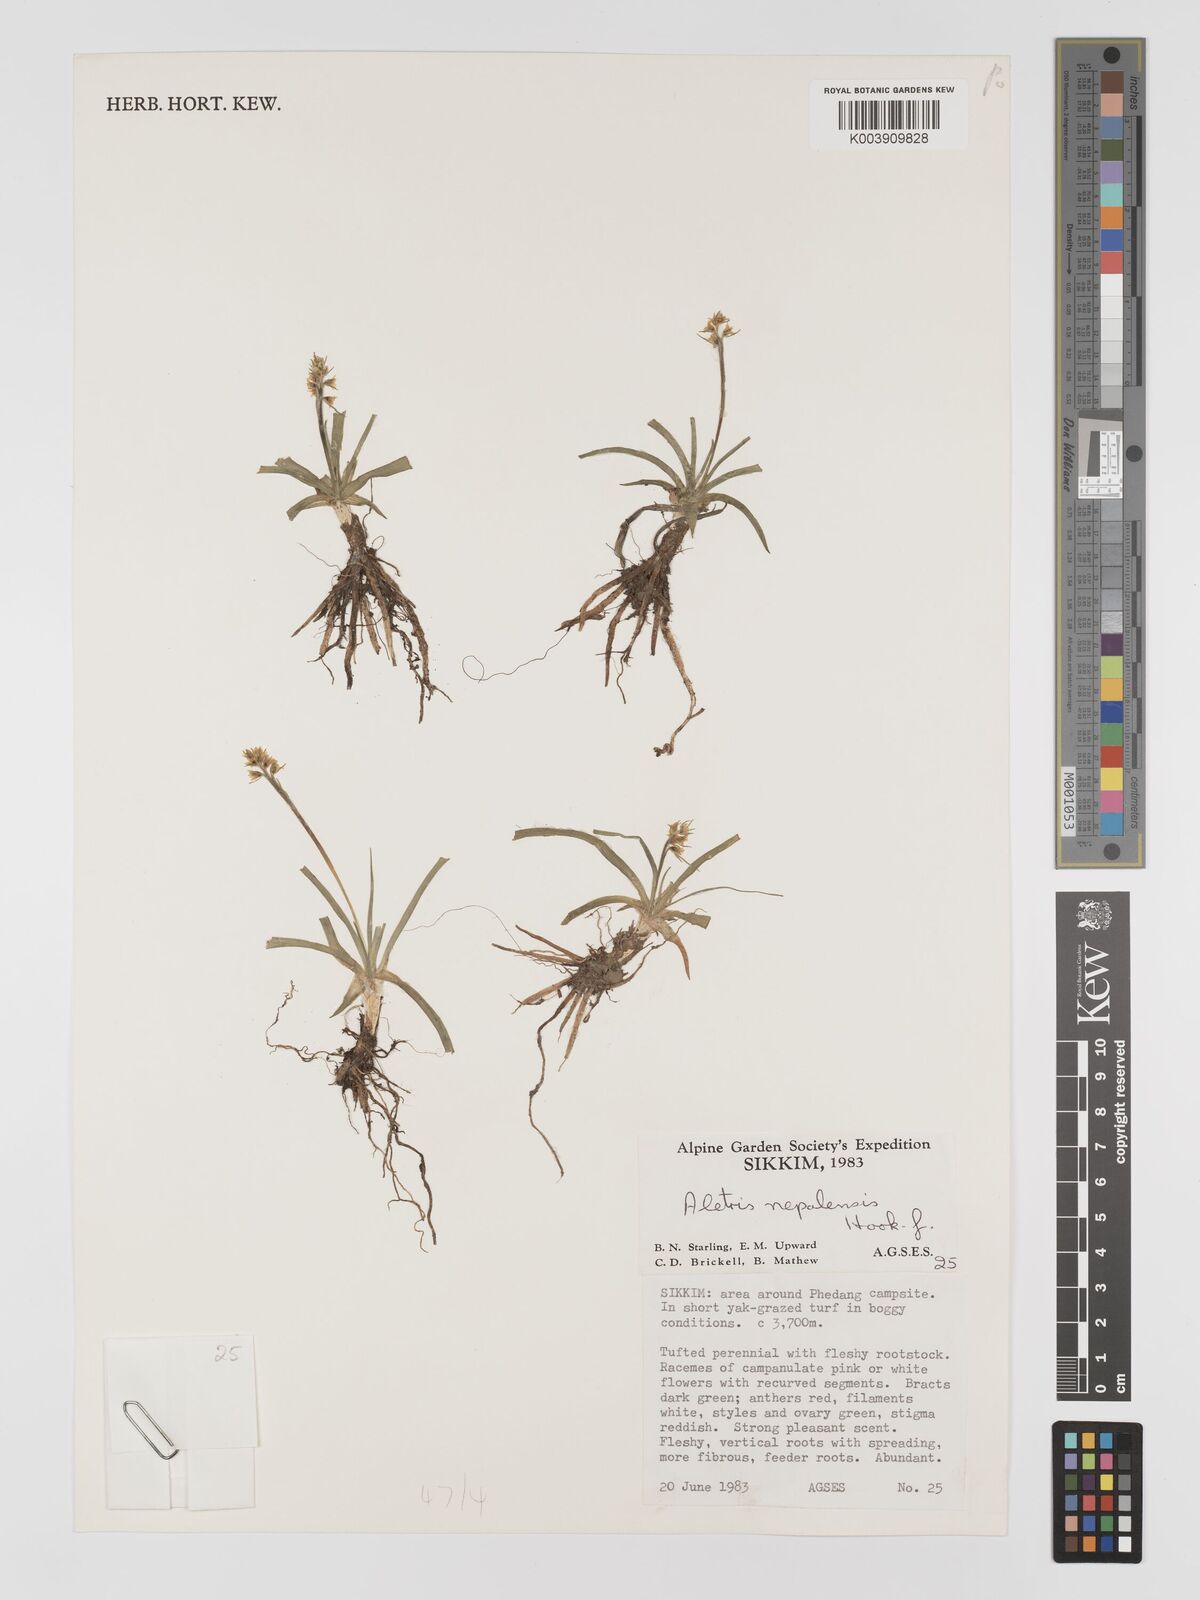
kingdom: Plantae
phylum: Tracheophyta
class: Liliopsida
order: Dioscoreales
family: Nartheciaceae
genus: Aletris
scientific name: Aletris pauciflora
